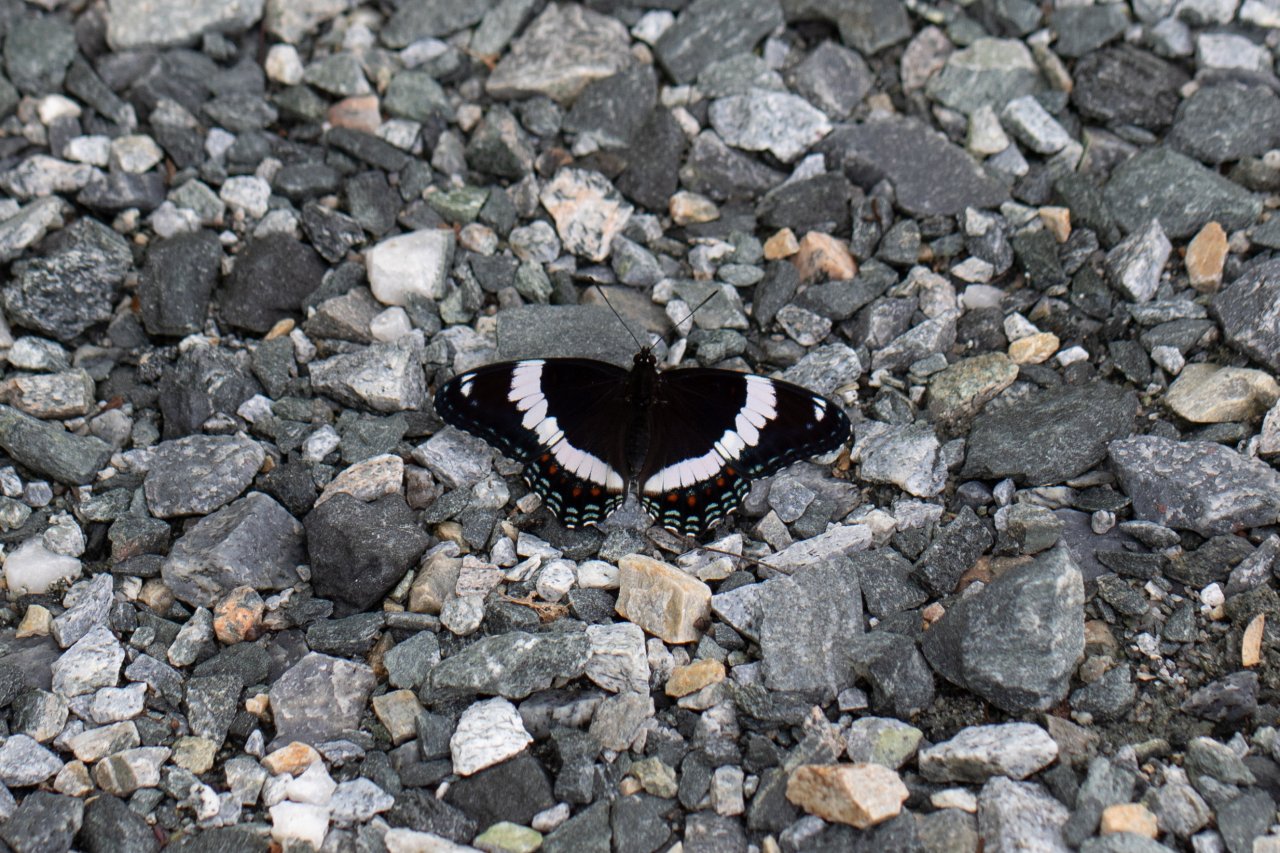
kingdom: Animalia
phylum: Arthropoda
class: Insecta
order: Lepidoptera
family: Nymphalidae
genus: Limenitis
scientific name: Limenitis arthemis
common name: Red-spotted Admiral
